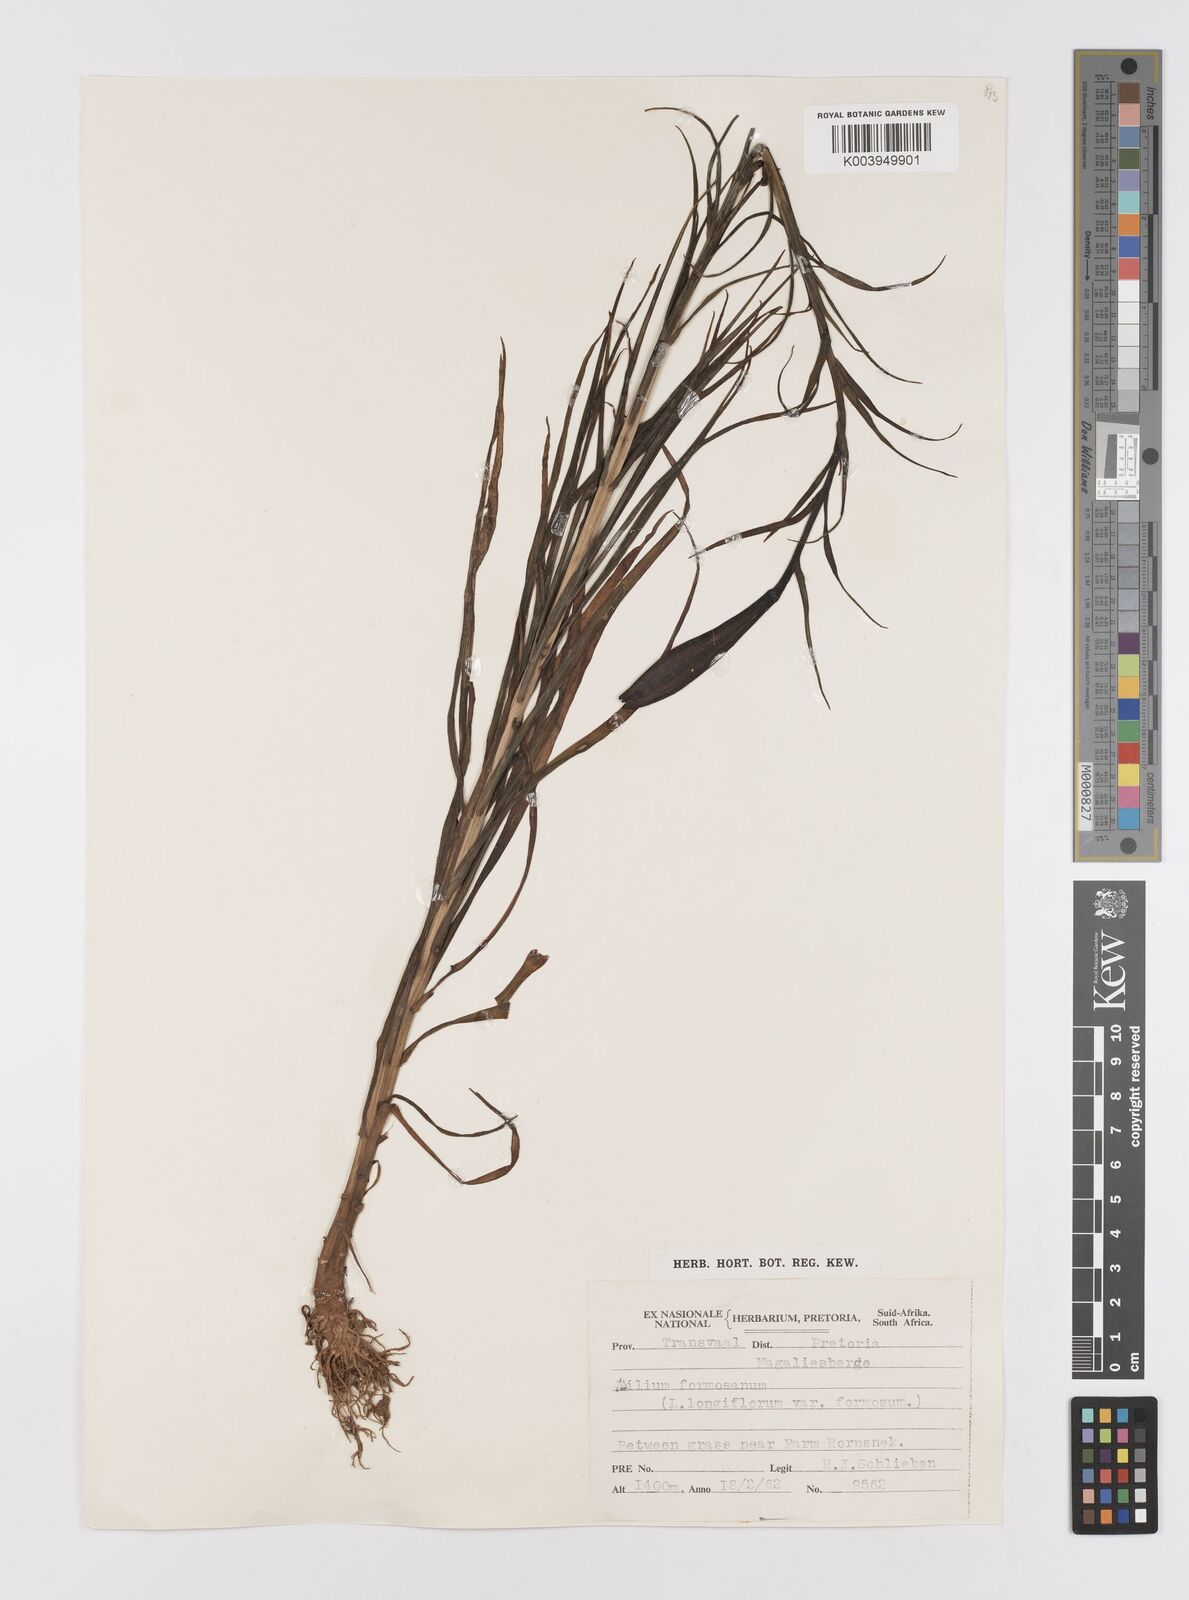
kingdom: Plantae
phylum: Tracheophyta
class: Liliopsida
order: Liliales
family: Liliaceae
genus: Lilium
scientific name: Lilium philippinense
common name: Philippine lily
